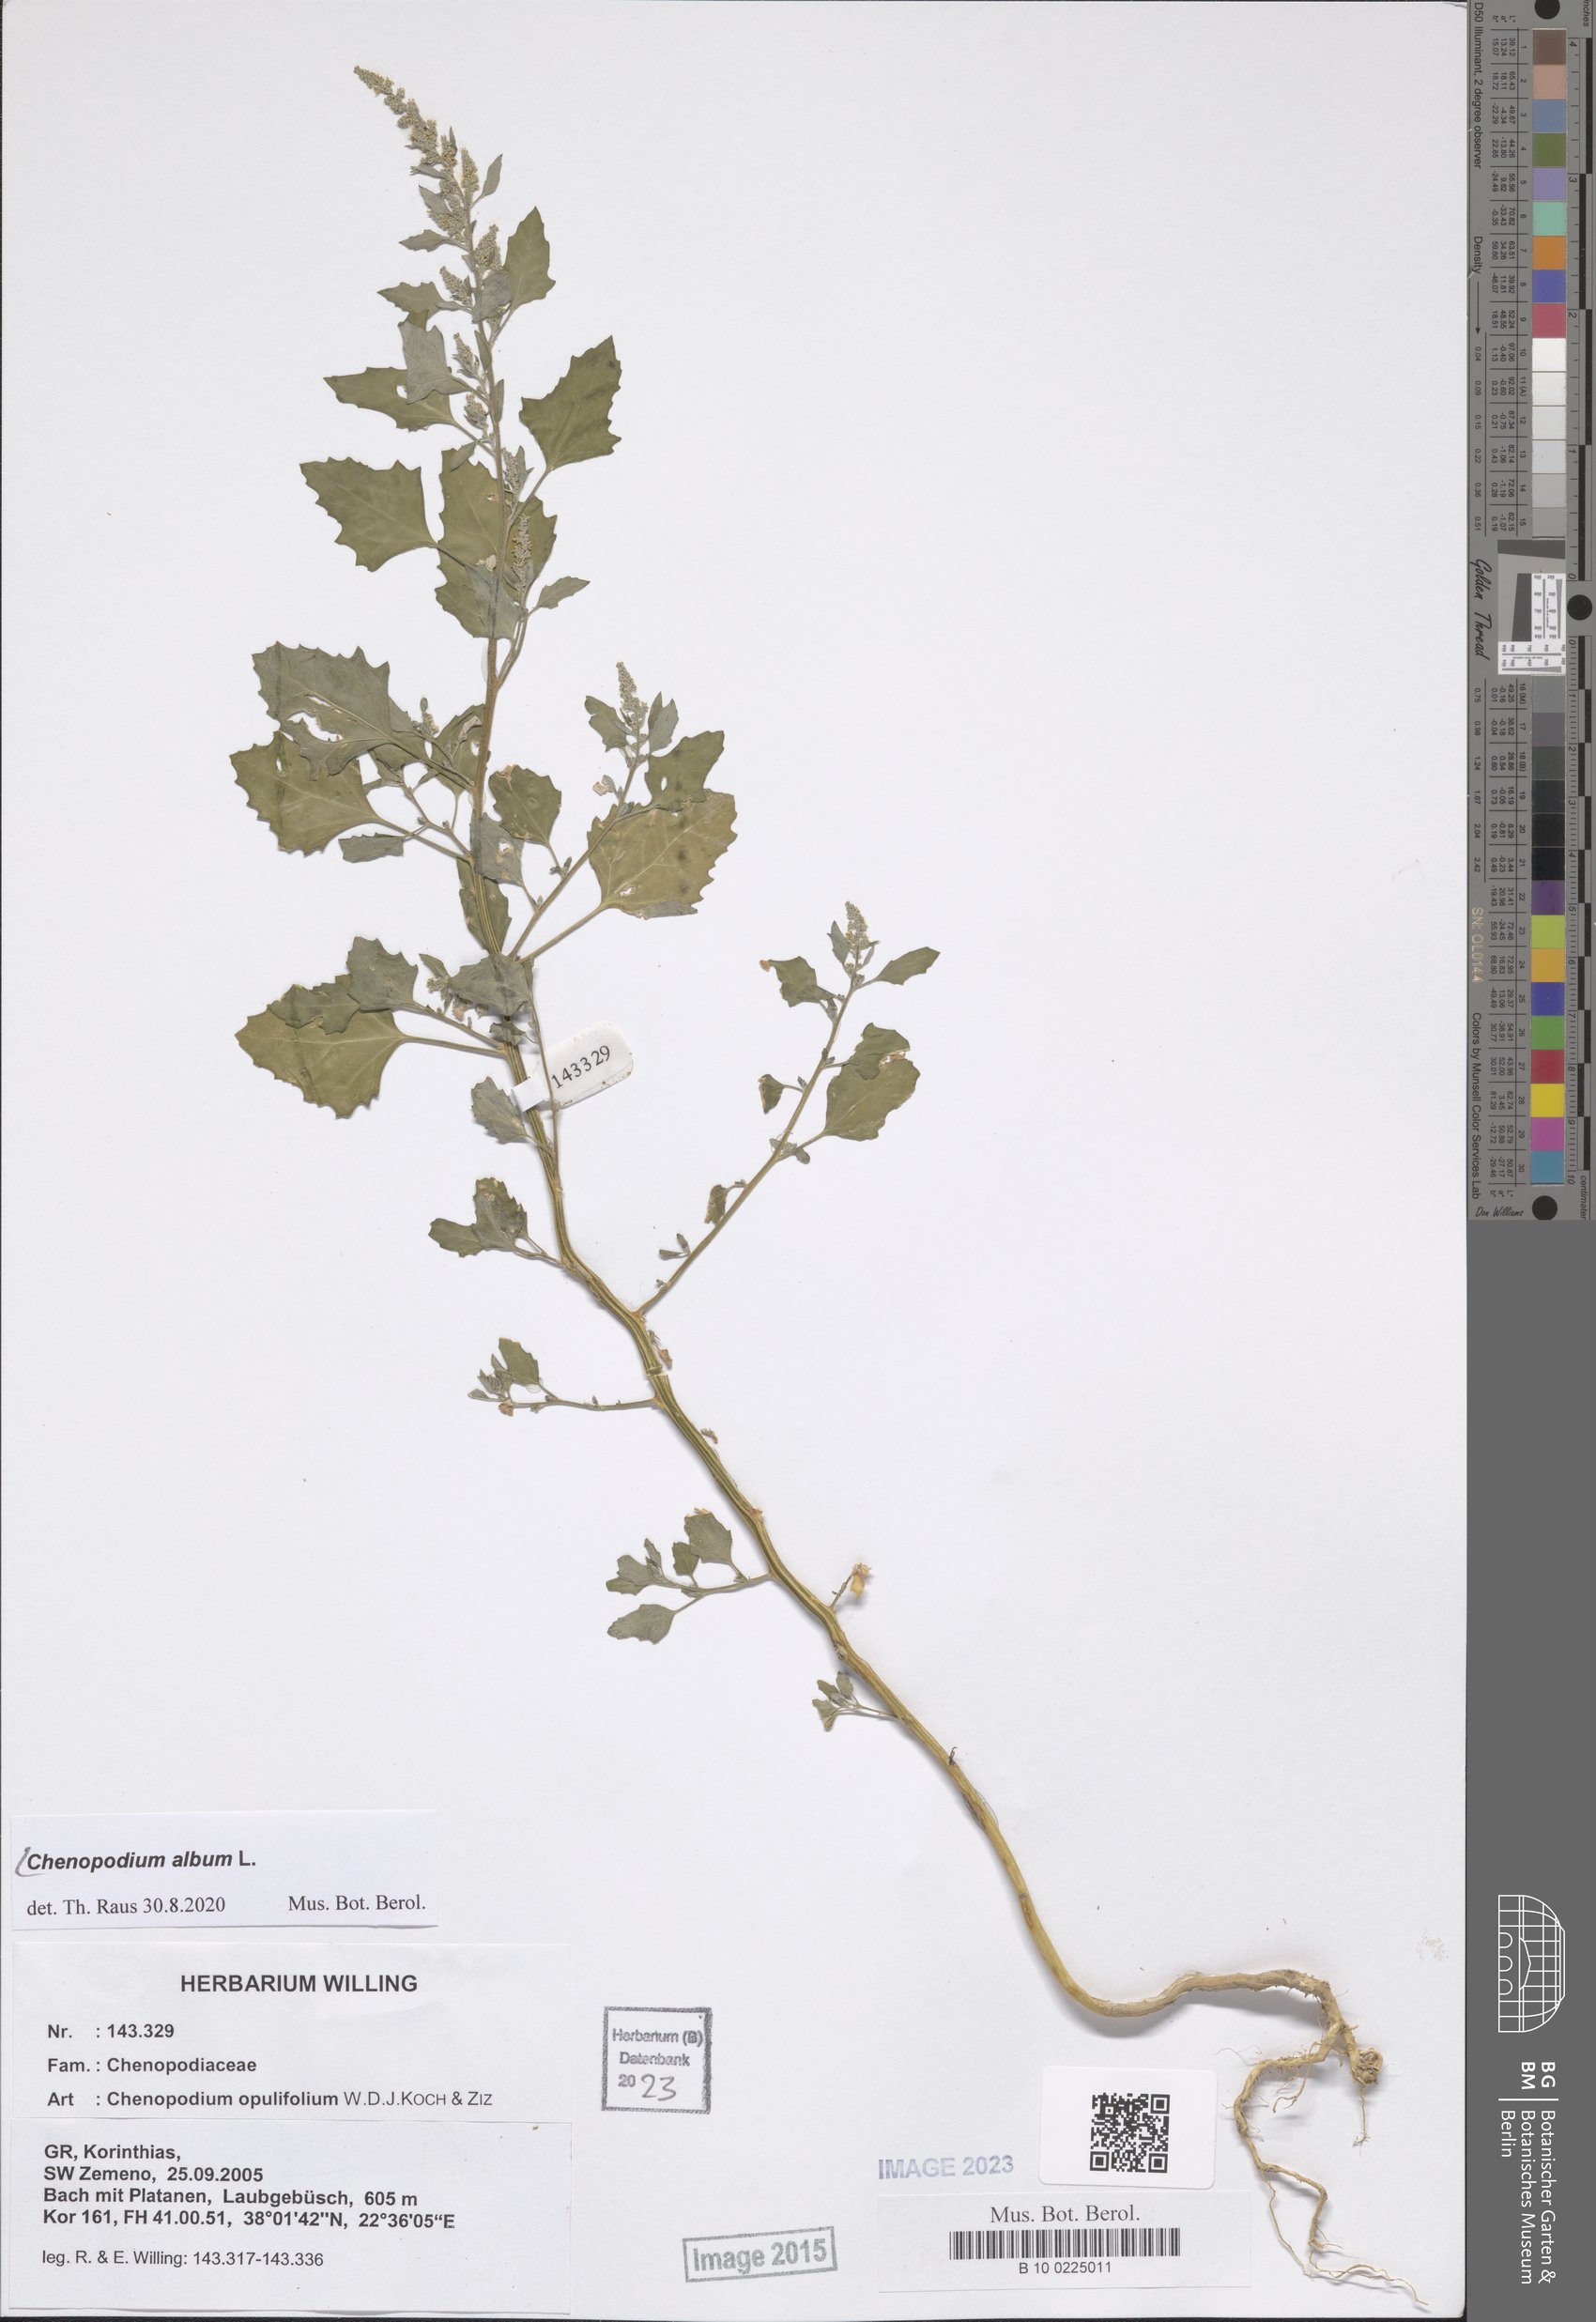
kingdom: Plantae
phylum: Tracheophyta
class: Magnoliopsida
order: Caryophyllales
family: Amaranthaceae
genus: Chenopodium
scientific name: Chenopodium album
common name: Fat-hen
